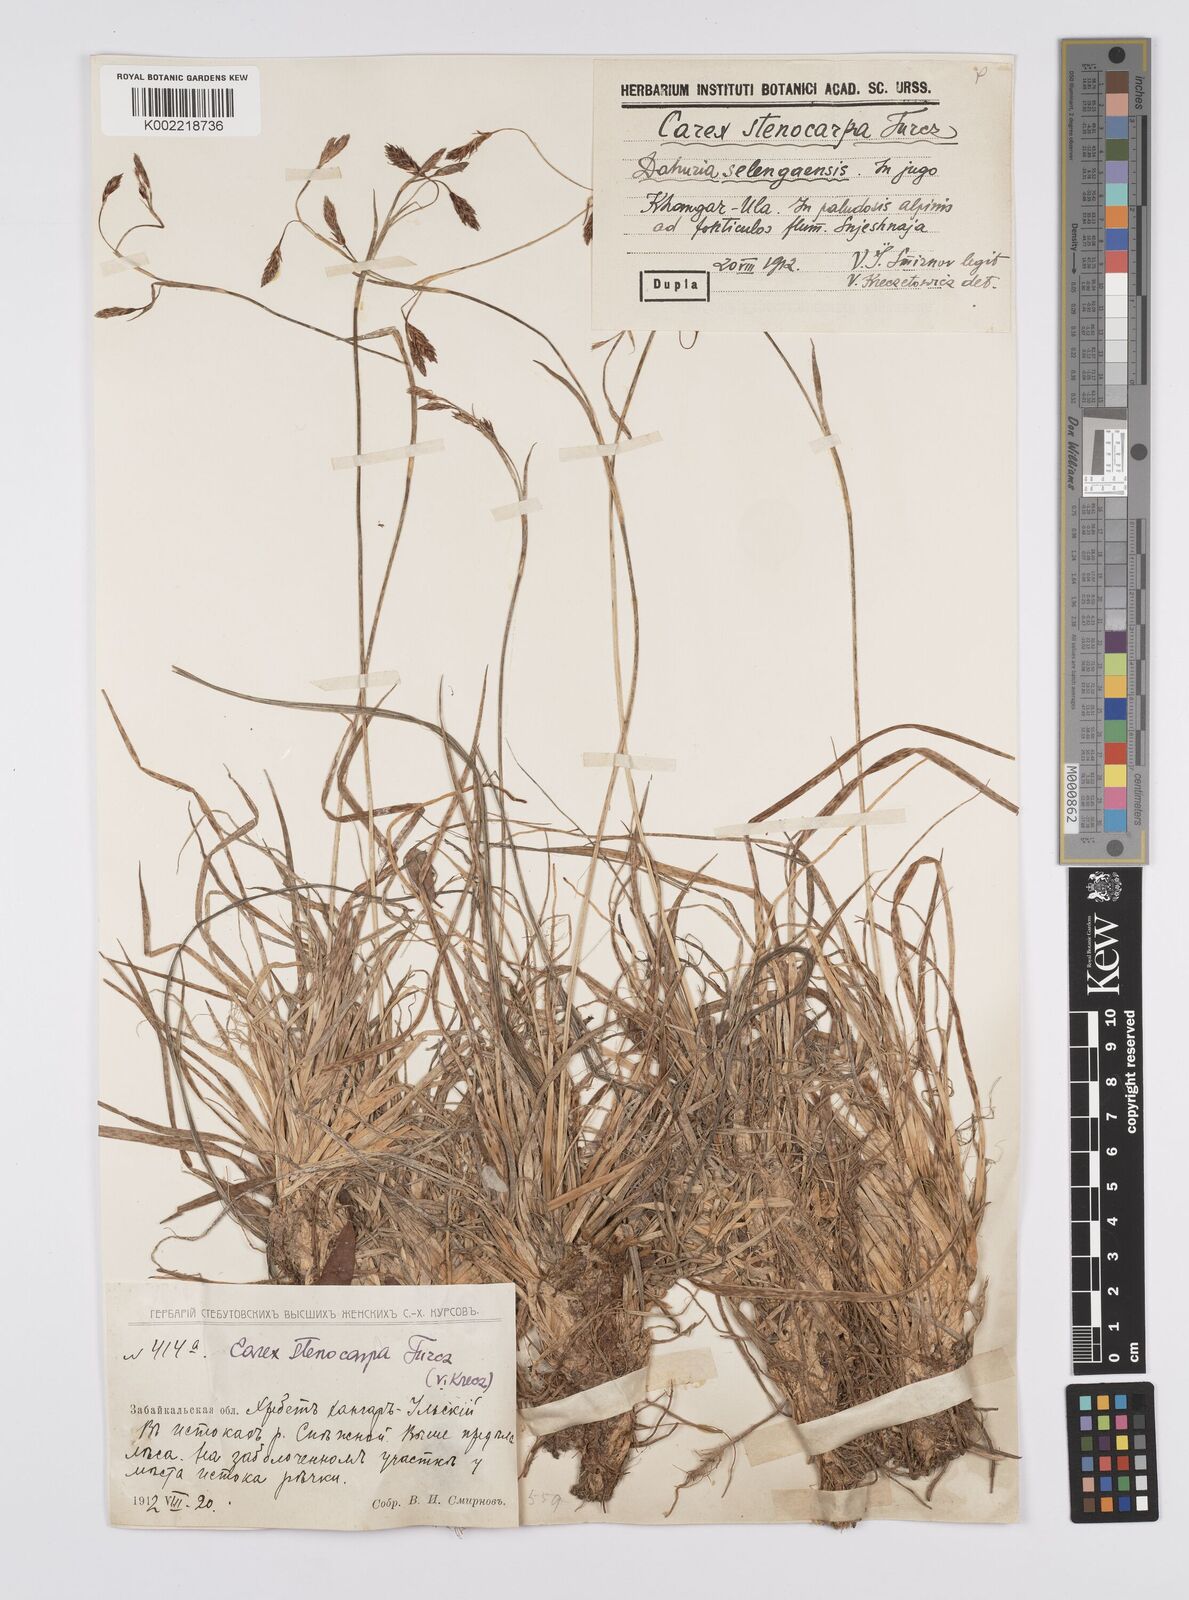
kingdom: Plantae
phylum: Tracheophyta
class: Liliopsida
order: Poales
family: Cyperaceae
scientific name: Cyperaceae
